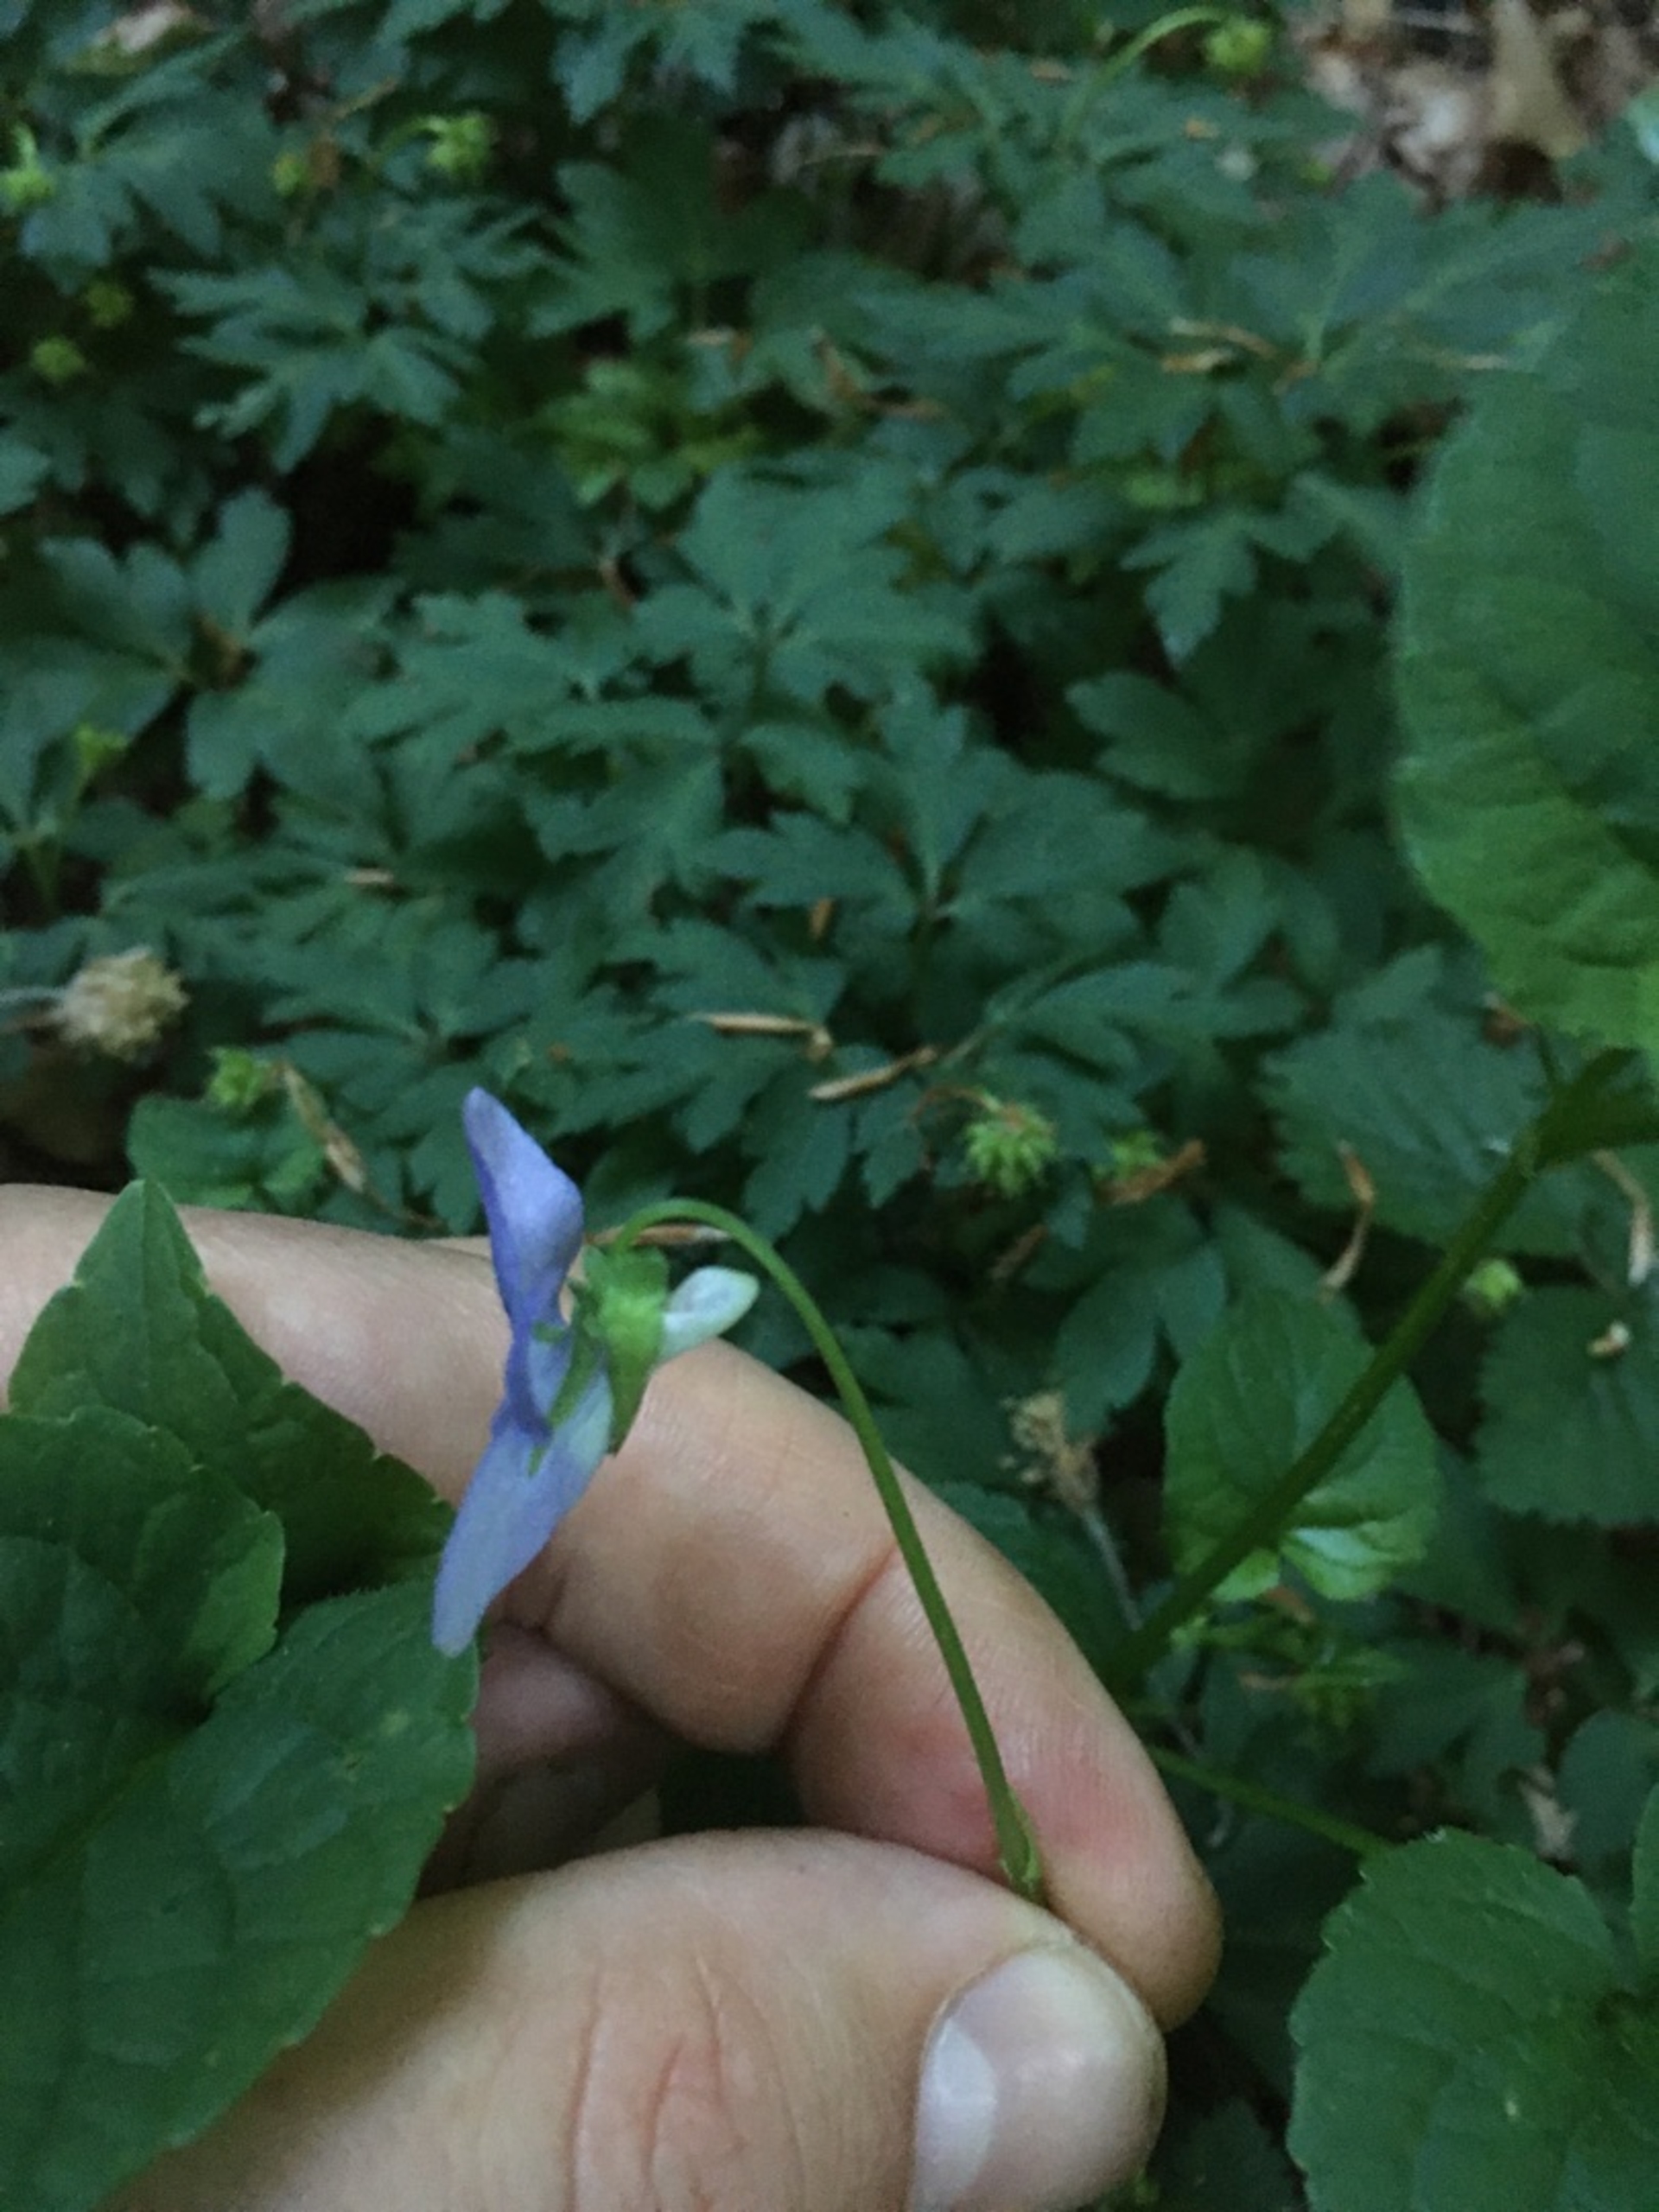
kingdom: Plantae
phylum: Tracheophyta
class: Magnoliopsida
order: Malpighiales
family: Violaceae
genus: Viola
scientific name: Viola riviniana
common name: Krat-viol
